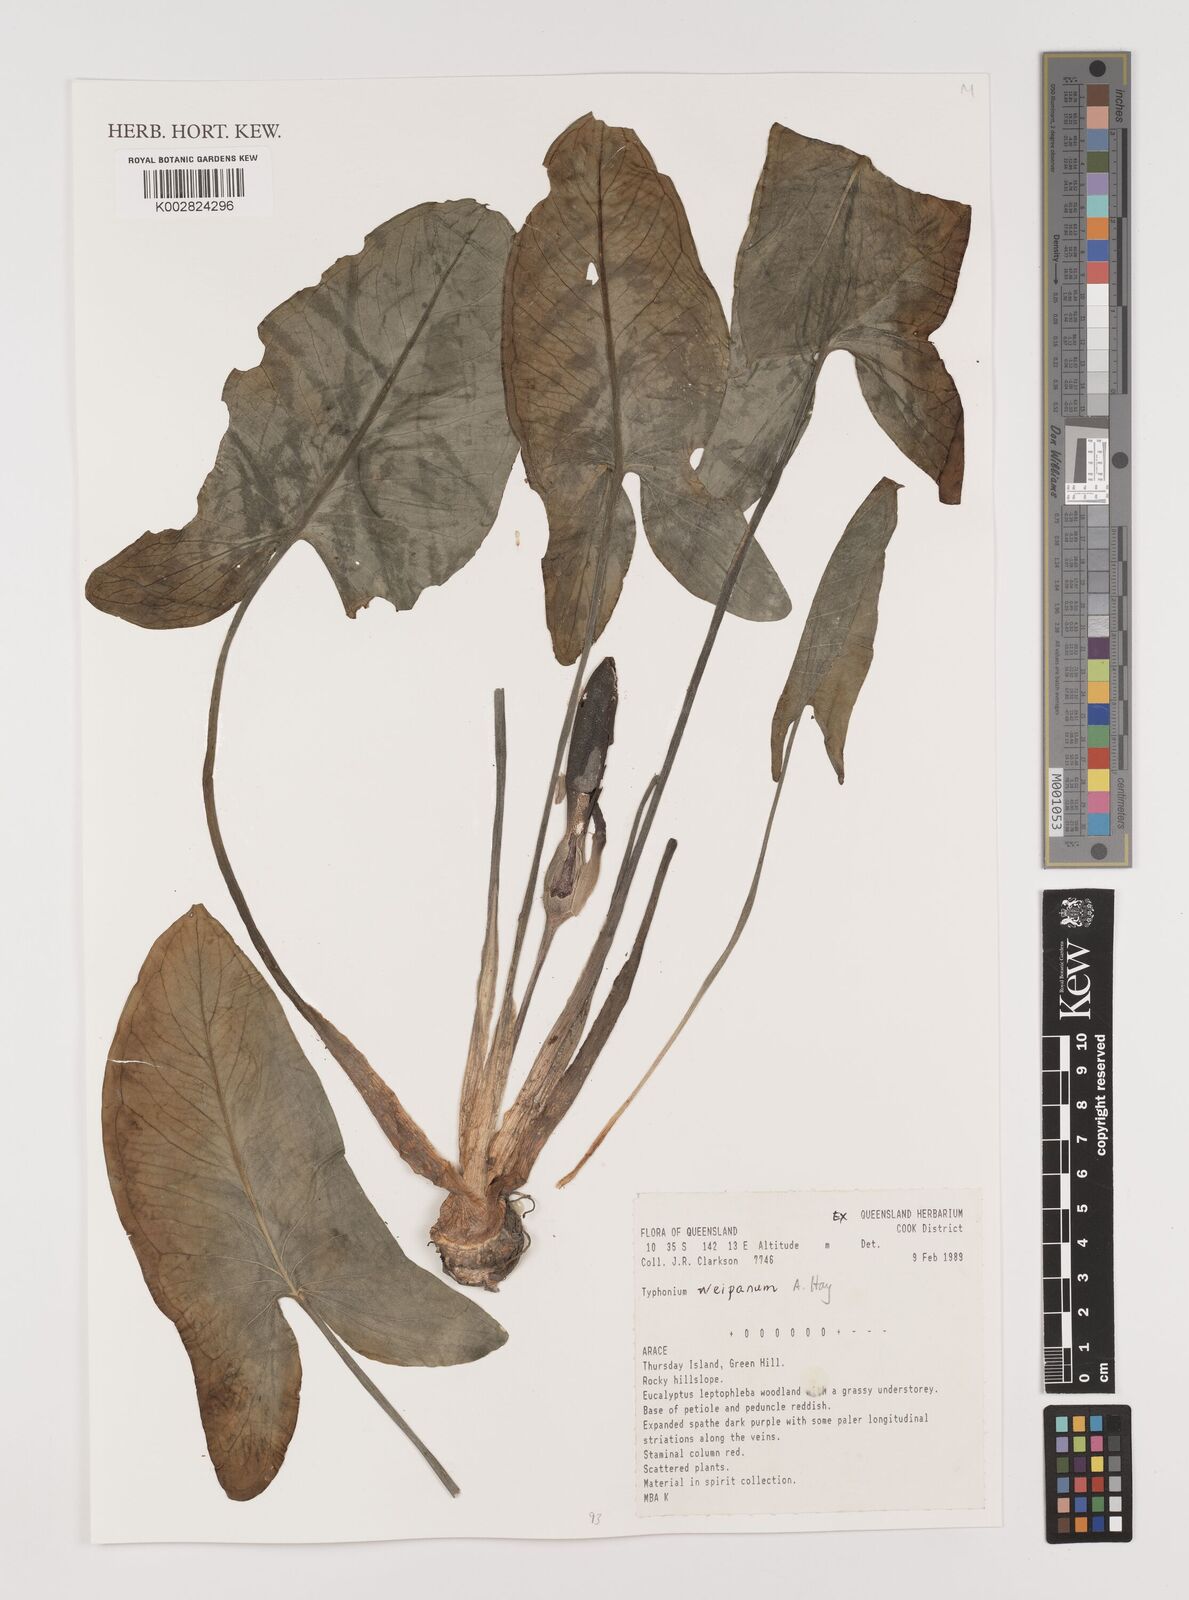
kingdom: Plantae
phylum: Tracheophyta
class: Liliopsida
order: Alismatales
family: Araceae
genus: Typhonium
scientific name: Typhonium weipanum
